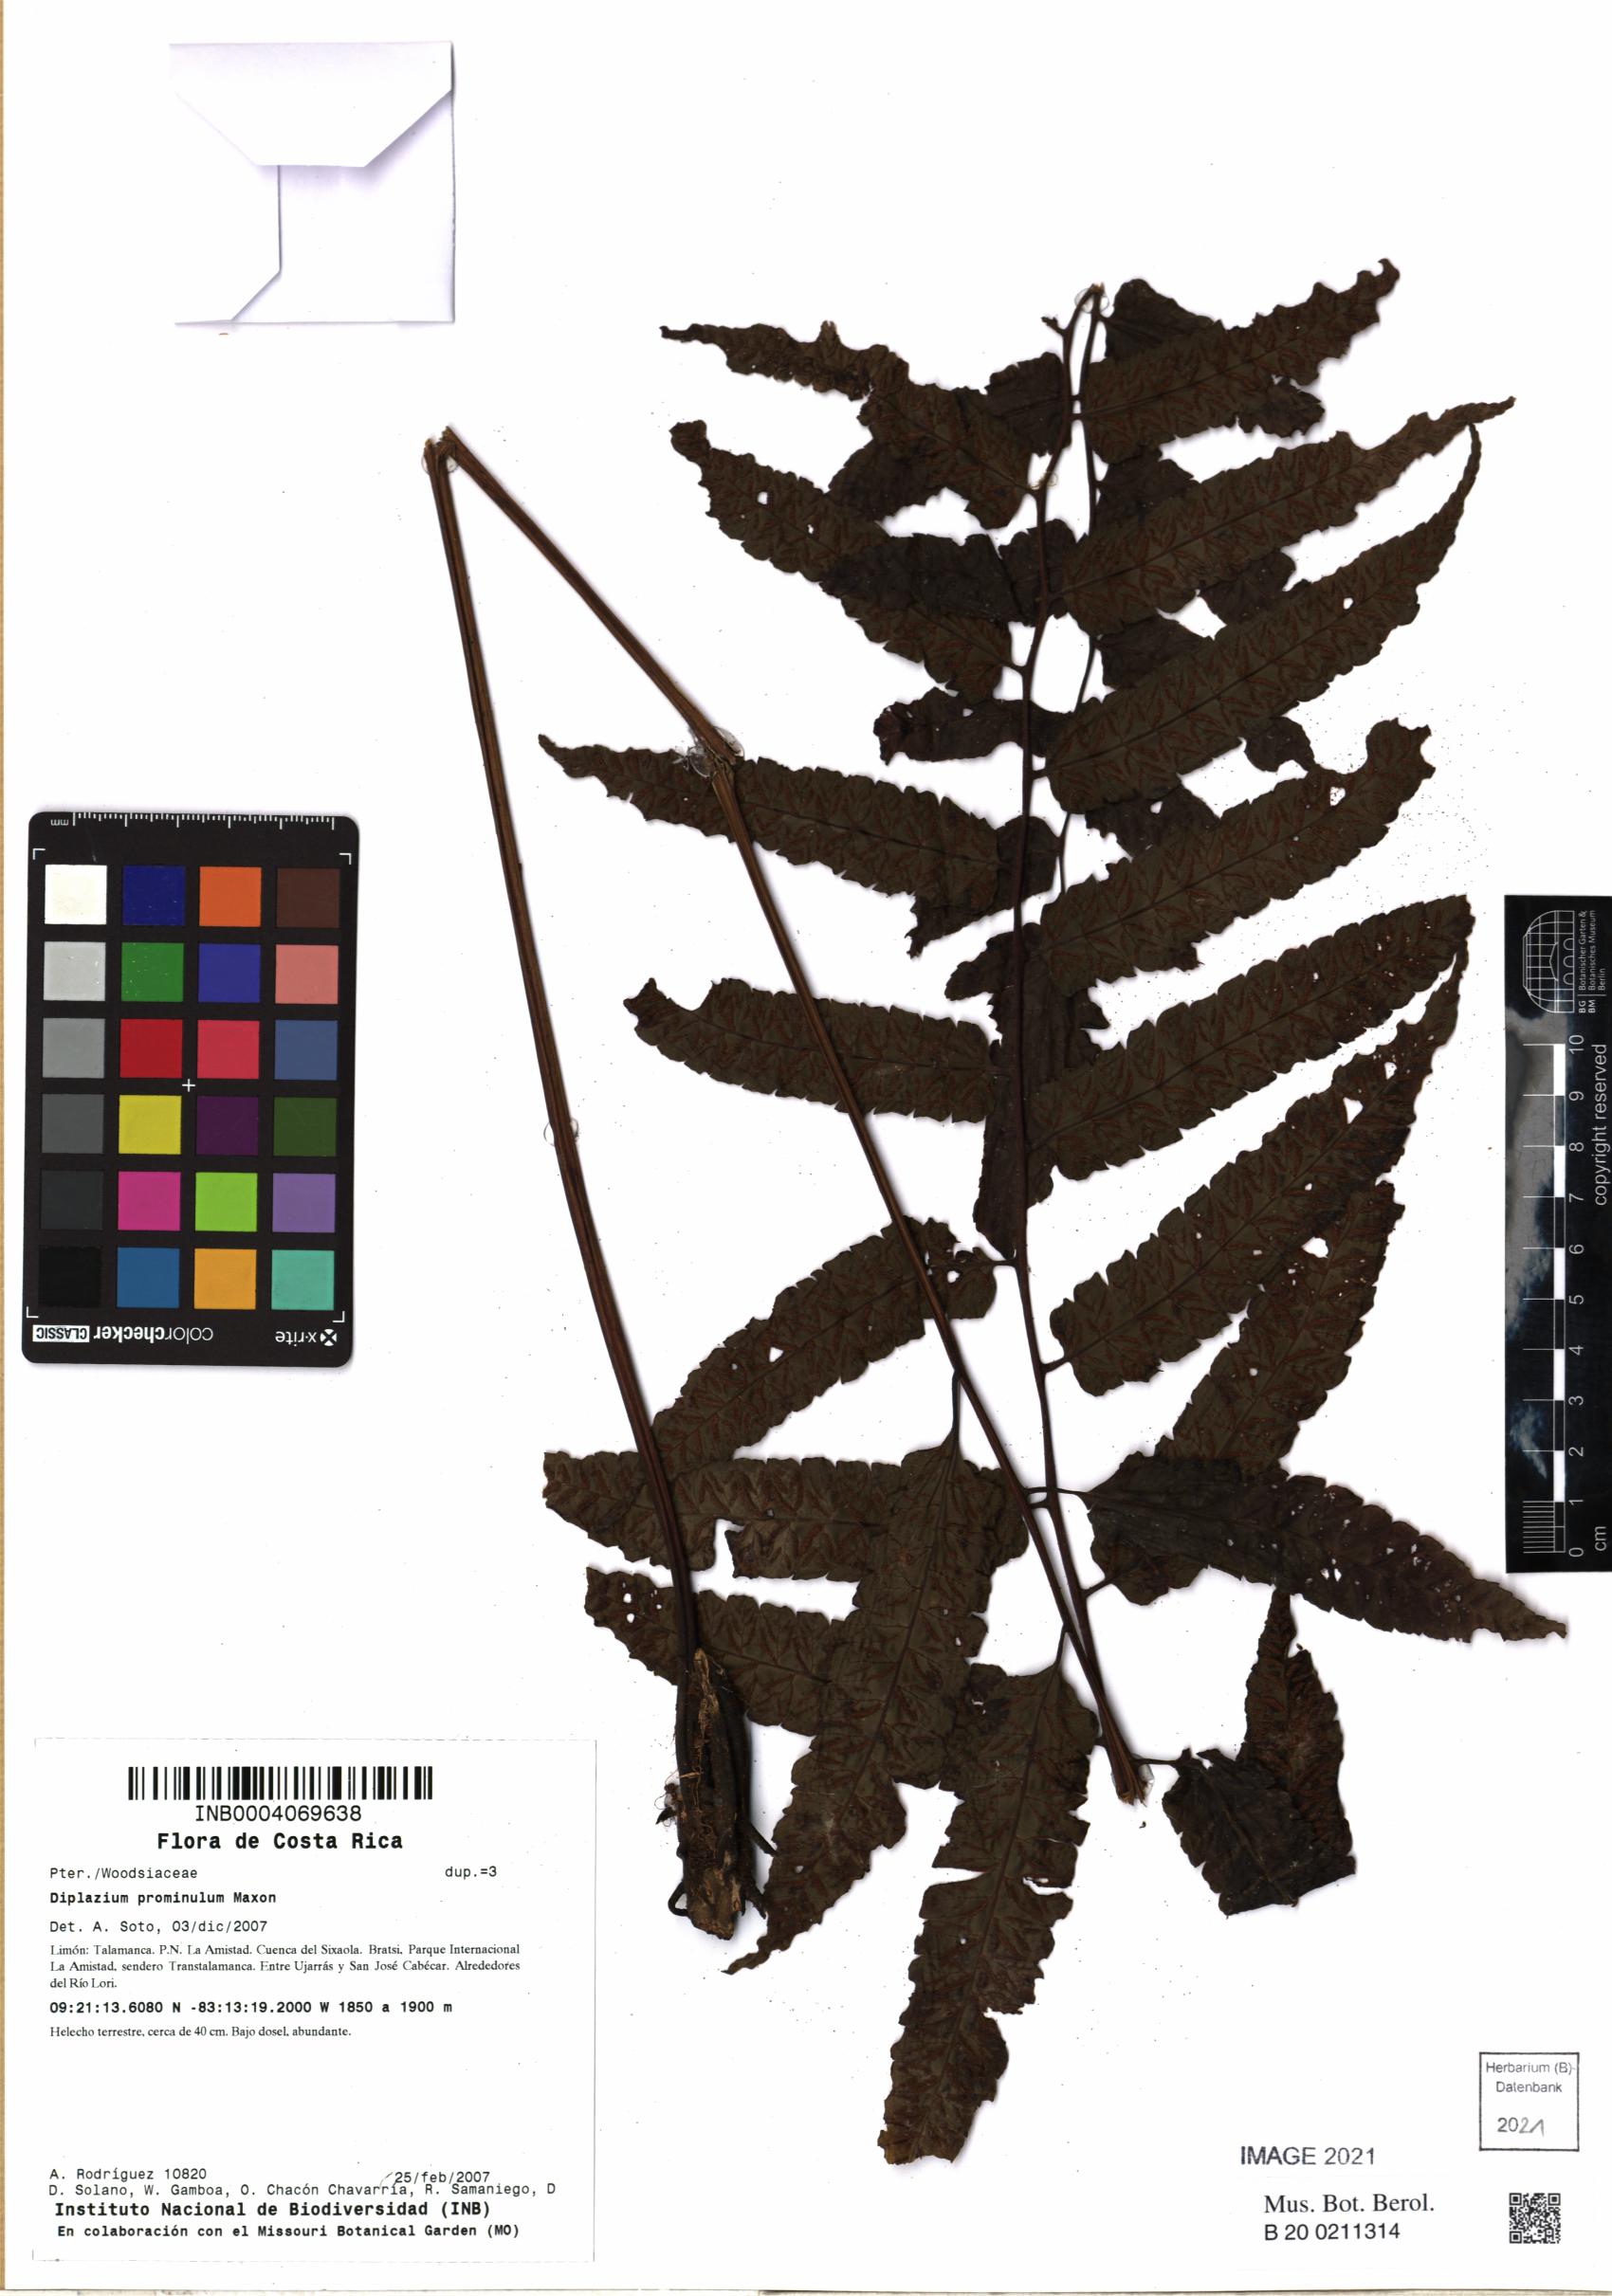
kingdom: Plantae
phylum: Tracheophyta
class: Polypodiopsida
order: Polypodiales
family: Athyriaceae
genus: Diplazium
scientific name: Diplazium prominulum
